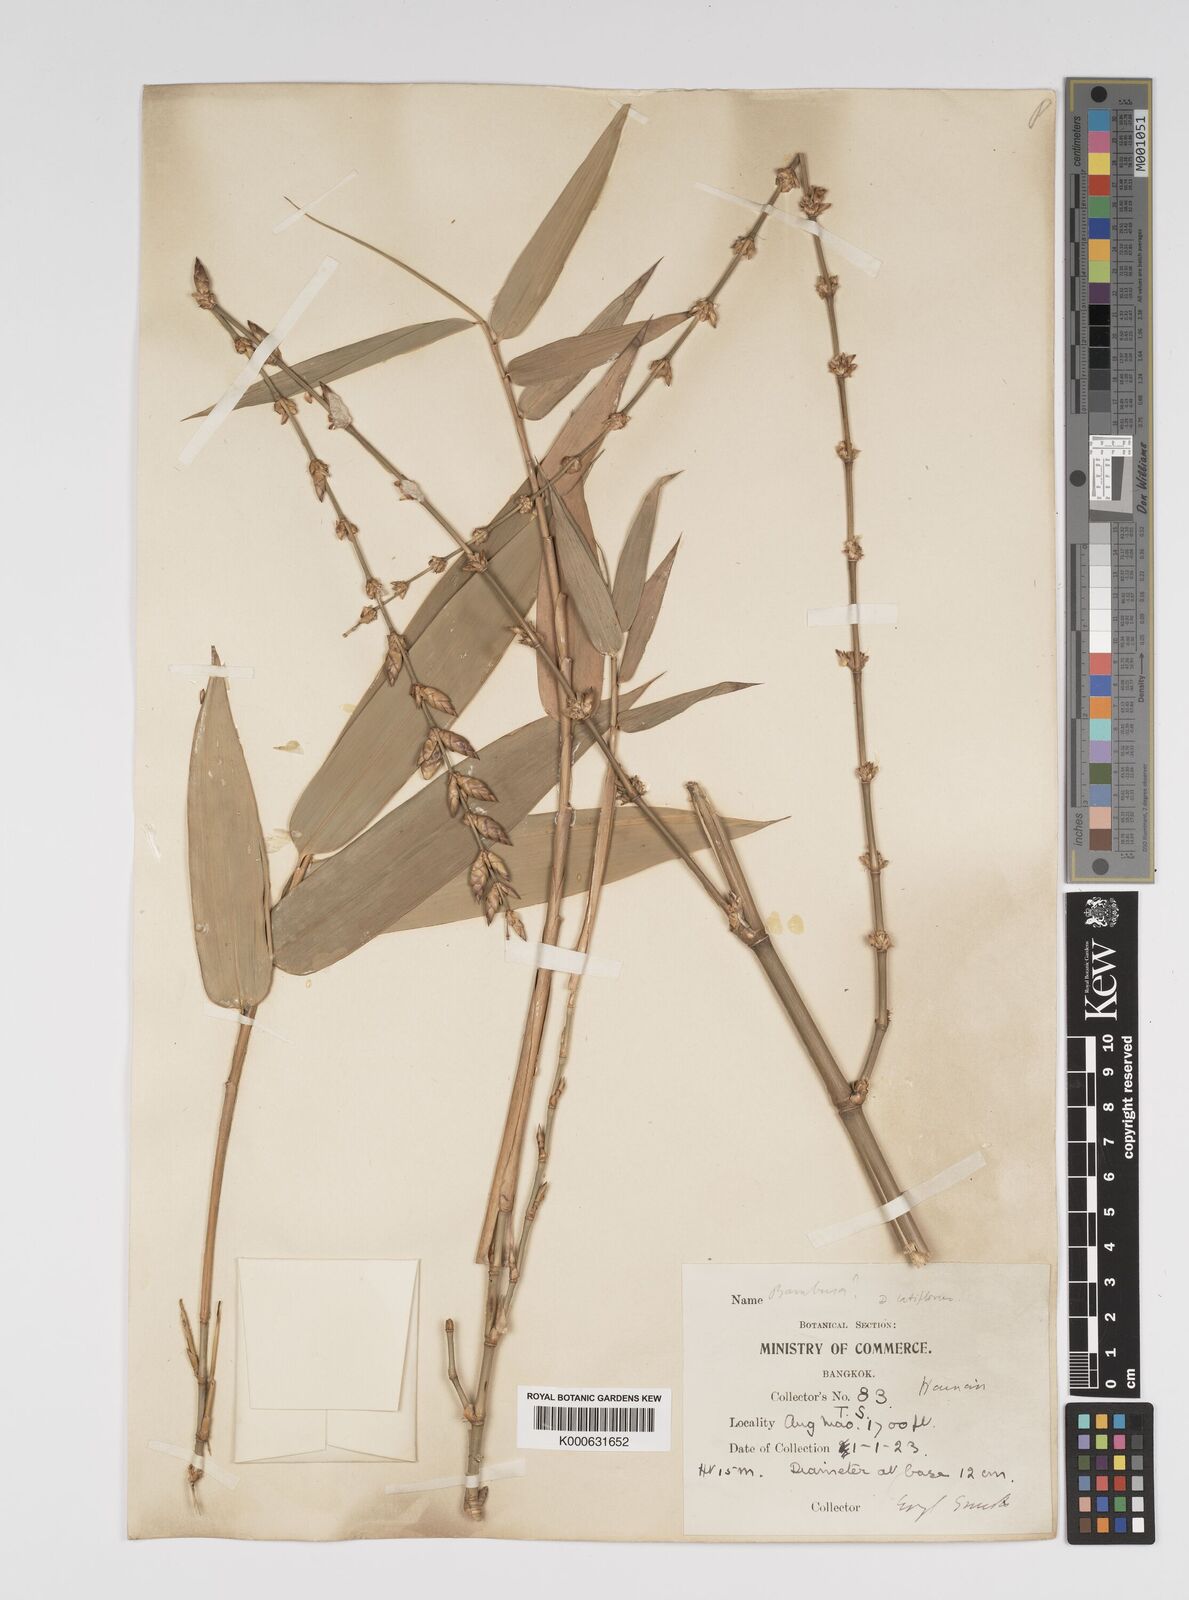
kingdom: Plantae
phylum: Tracheophyta
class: Liliopsida
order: Poales
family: Poaceae
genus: Bambusa
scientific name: Bambusa
